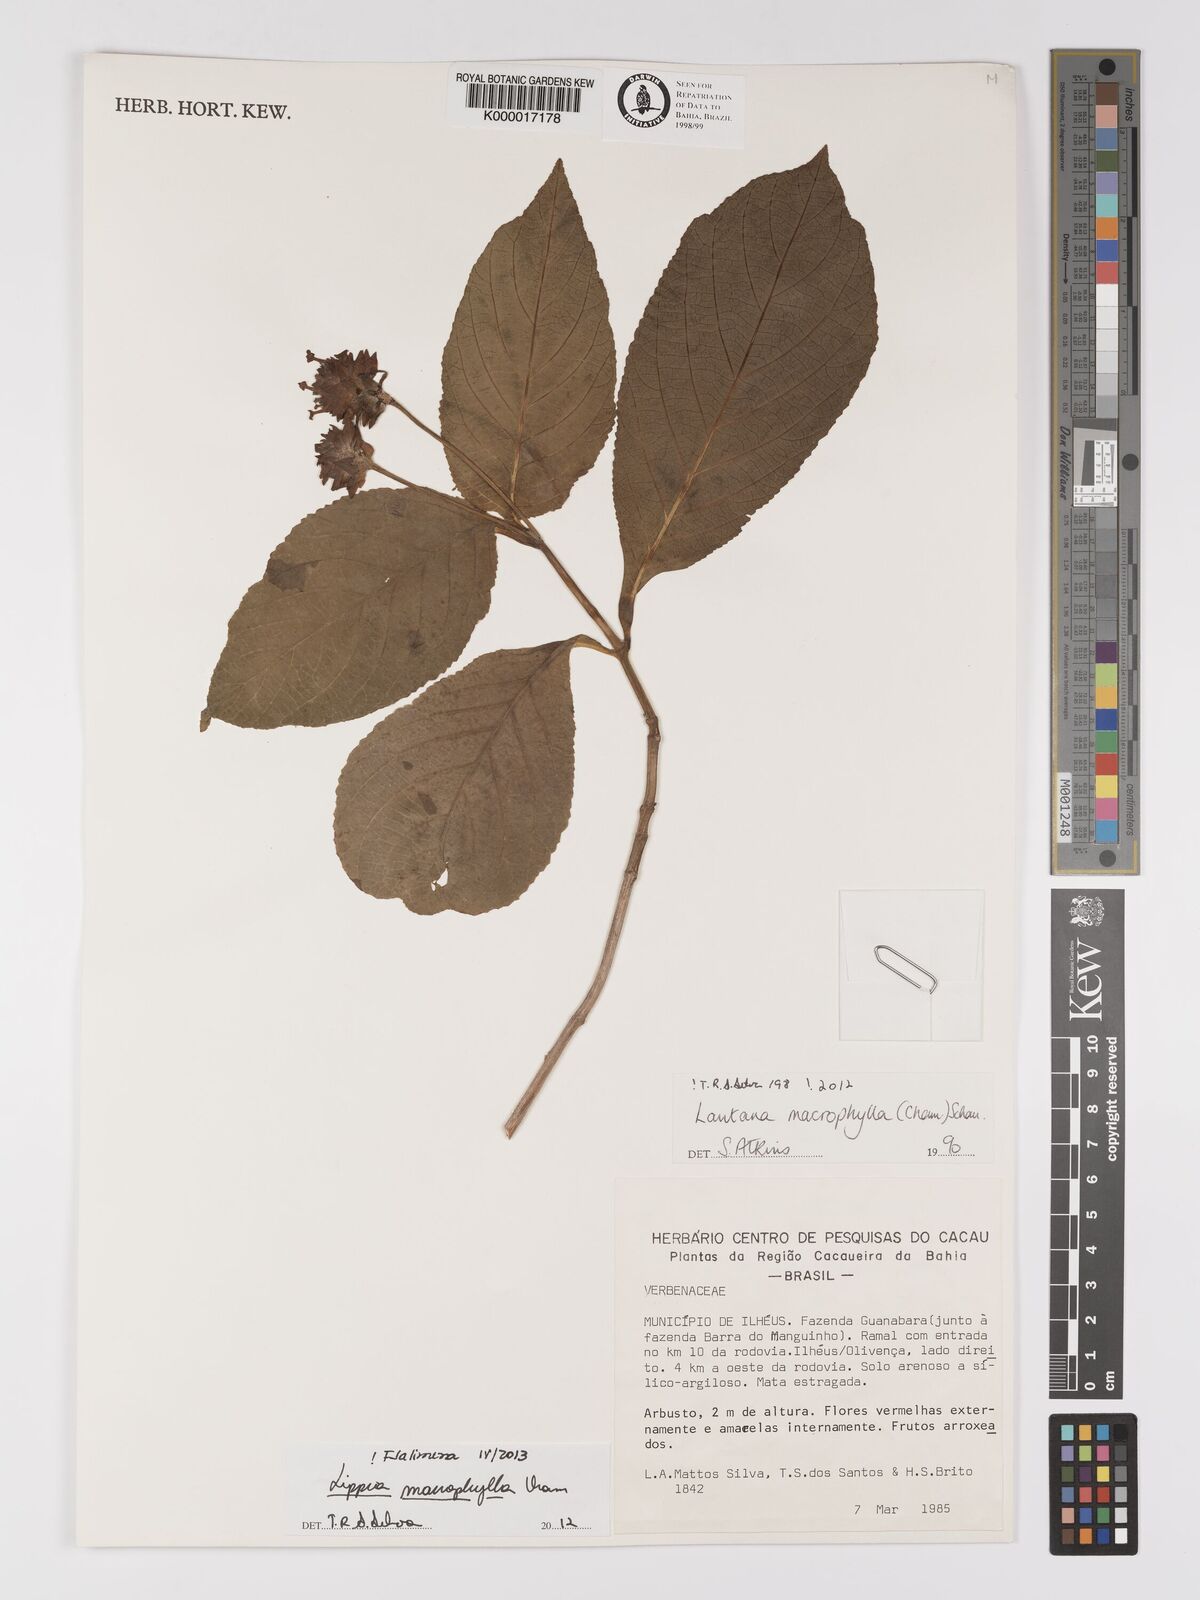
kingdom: Plantae
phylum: Tracheophyta
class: Magnoliopsida
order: Lamiales
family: Verbenaceae
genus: Lippia
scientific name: Lippia macrophylla
